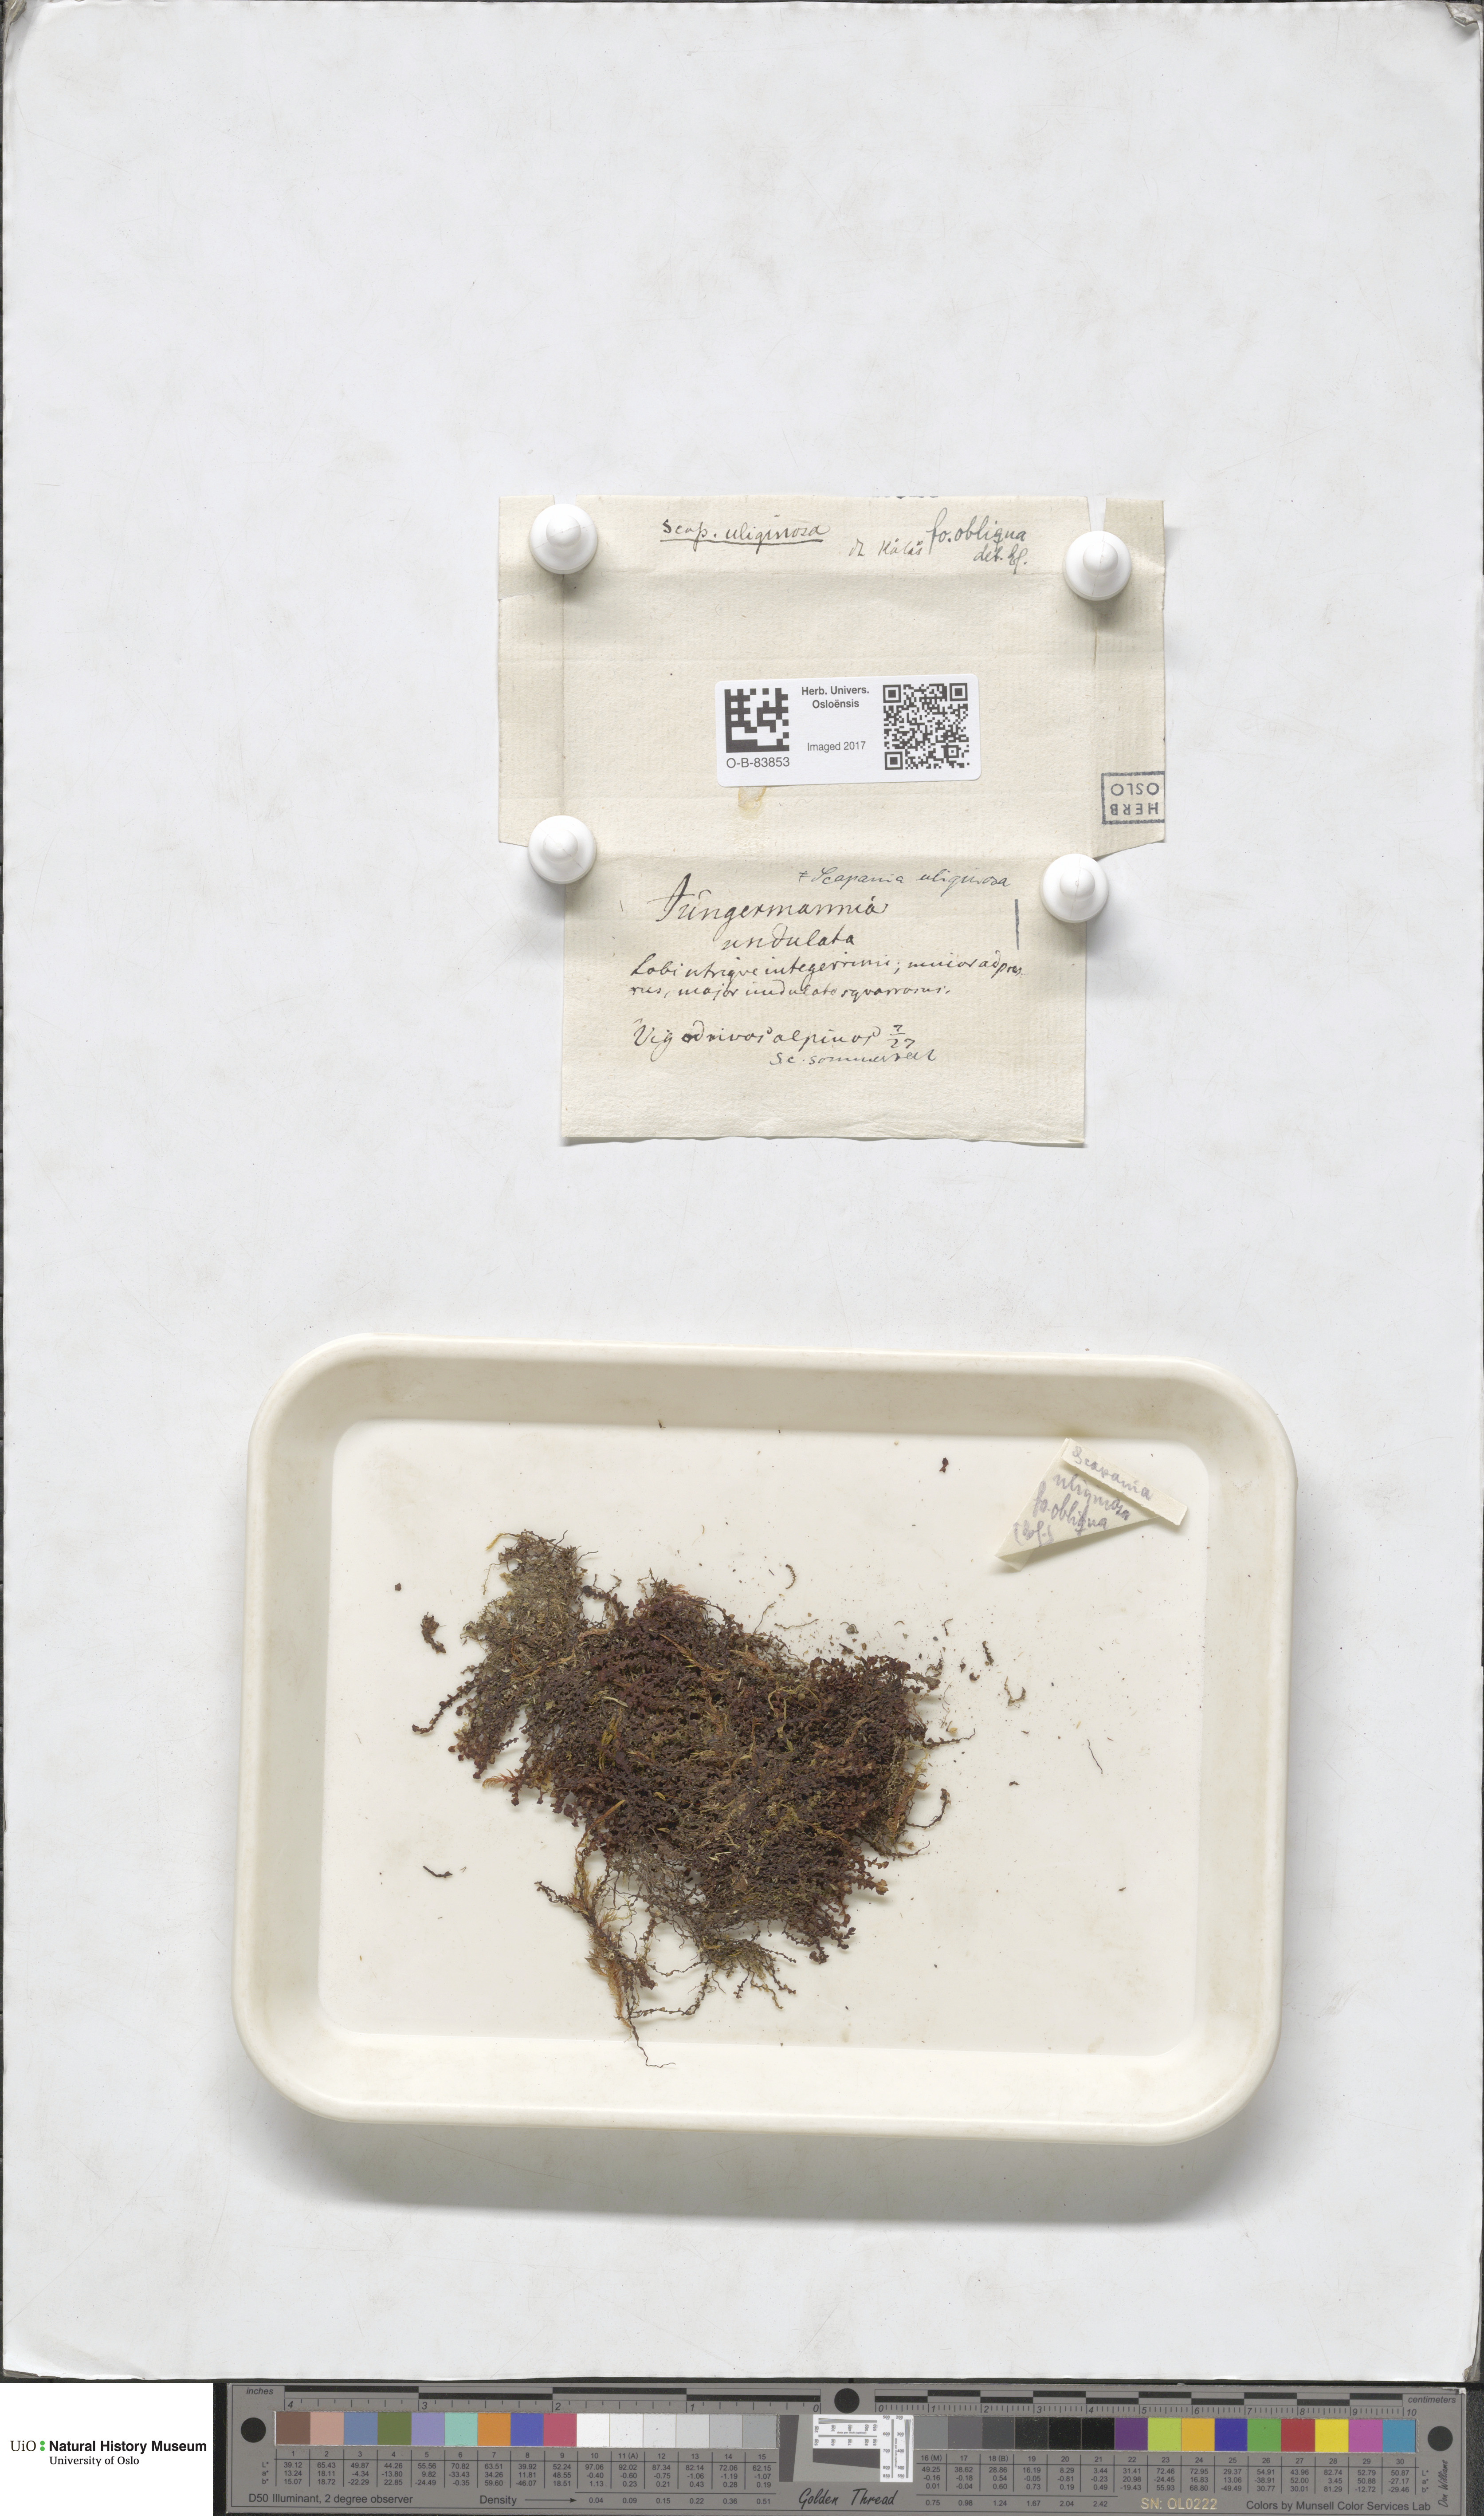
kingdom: Plantae
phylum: Marchantiophyta
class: Jungermanniopsida
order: Jungermanniales
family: Scapaniaceae
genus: Scapania
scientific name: Scapania uliginosa
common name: Marsh earwort
